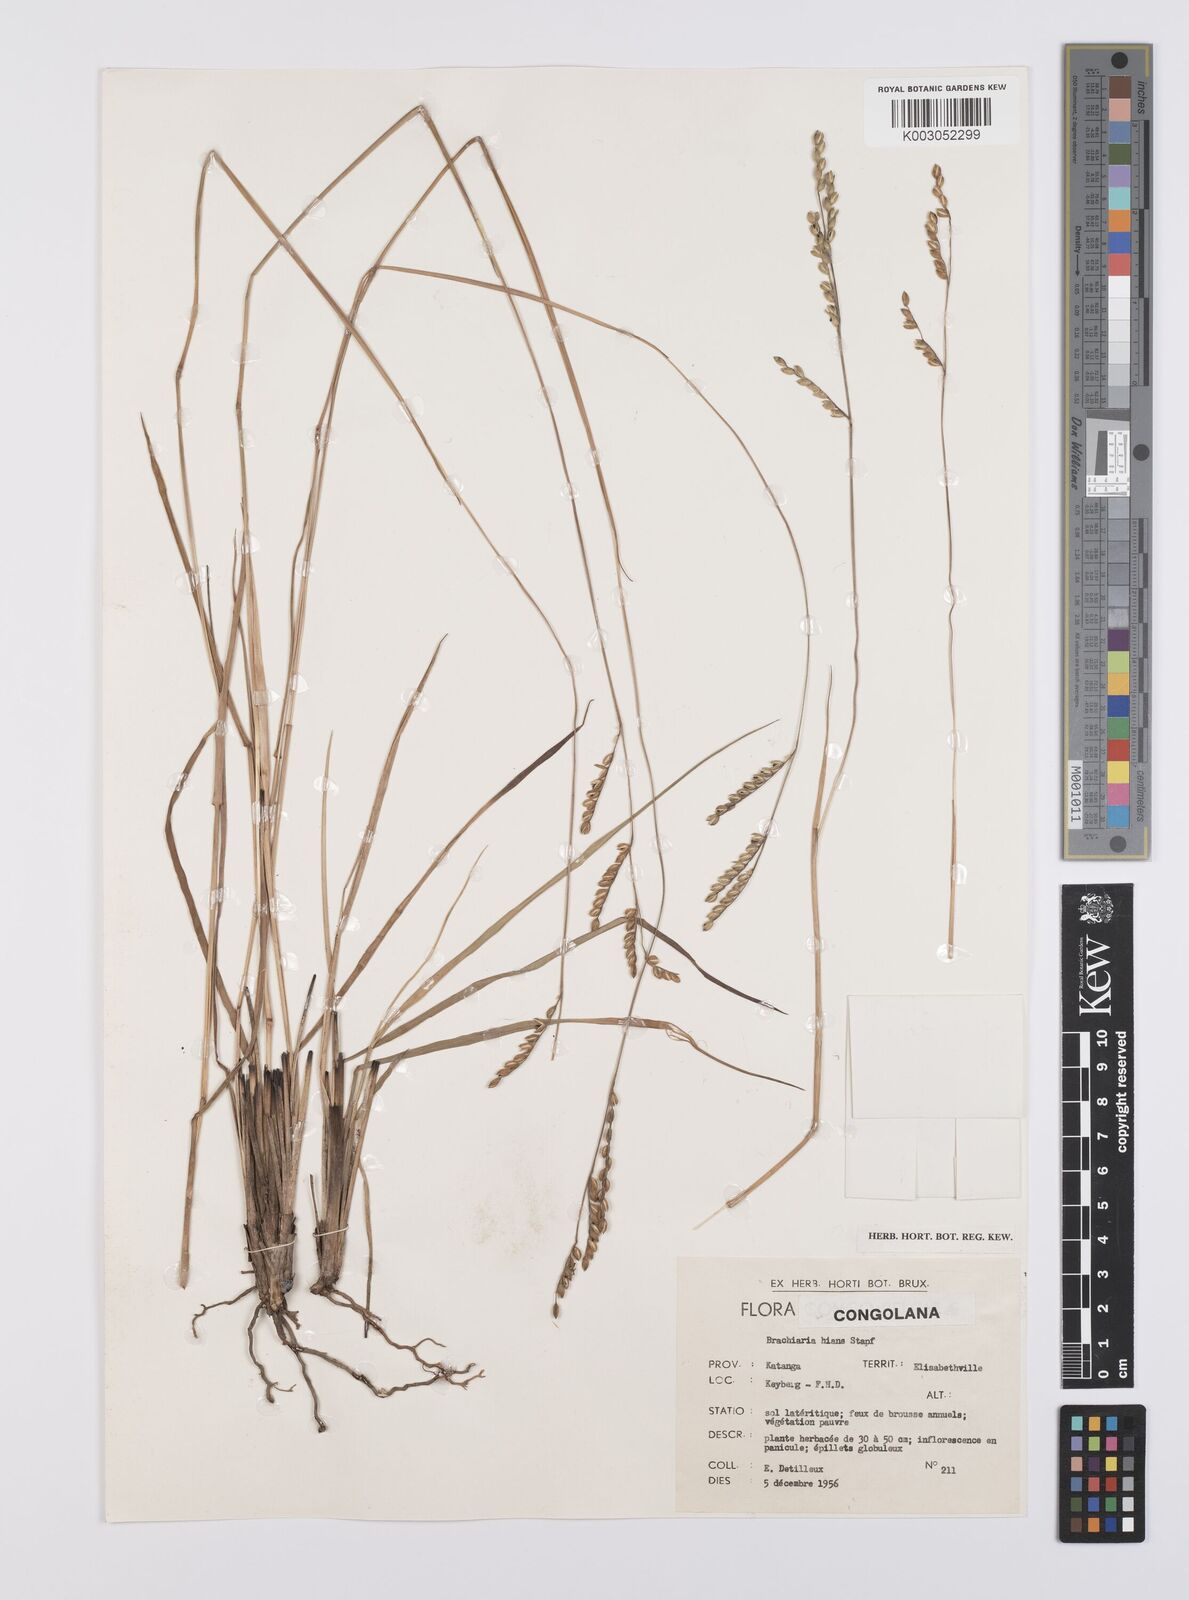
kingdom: Plantae
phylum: Tracheophyta
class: Liliopsida
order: Poales
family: Poaceae
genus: Urochloa
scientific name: Urochloa bovonei
